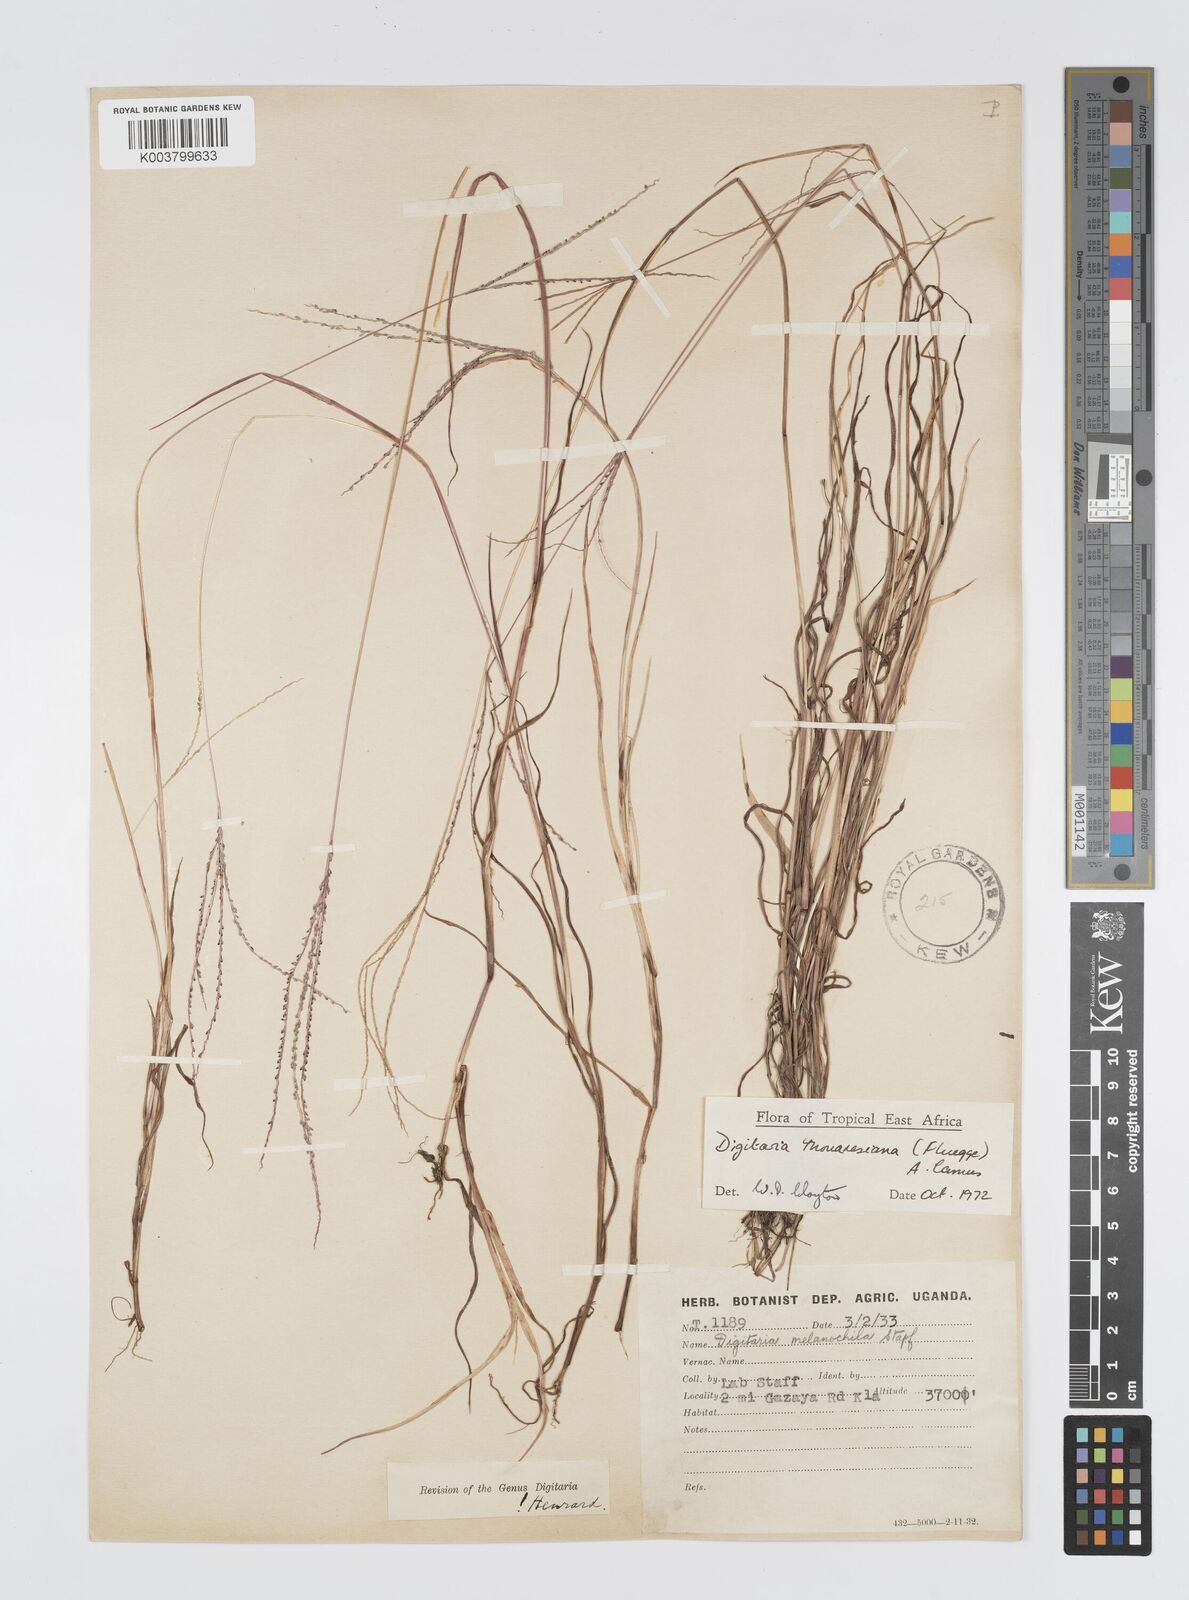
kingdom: Plantae
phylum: Tracheophyta
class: Liliopsida
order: Poales
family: Poaceae
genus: Digitaria
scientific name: Digitaria thouarsiana
